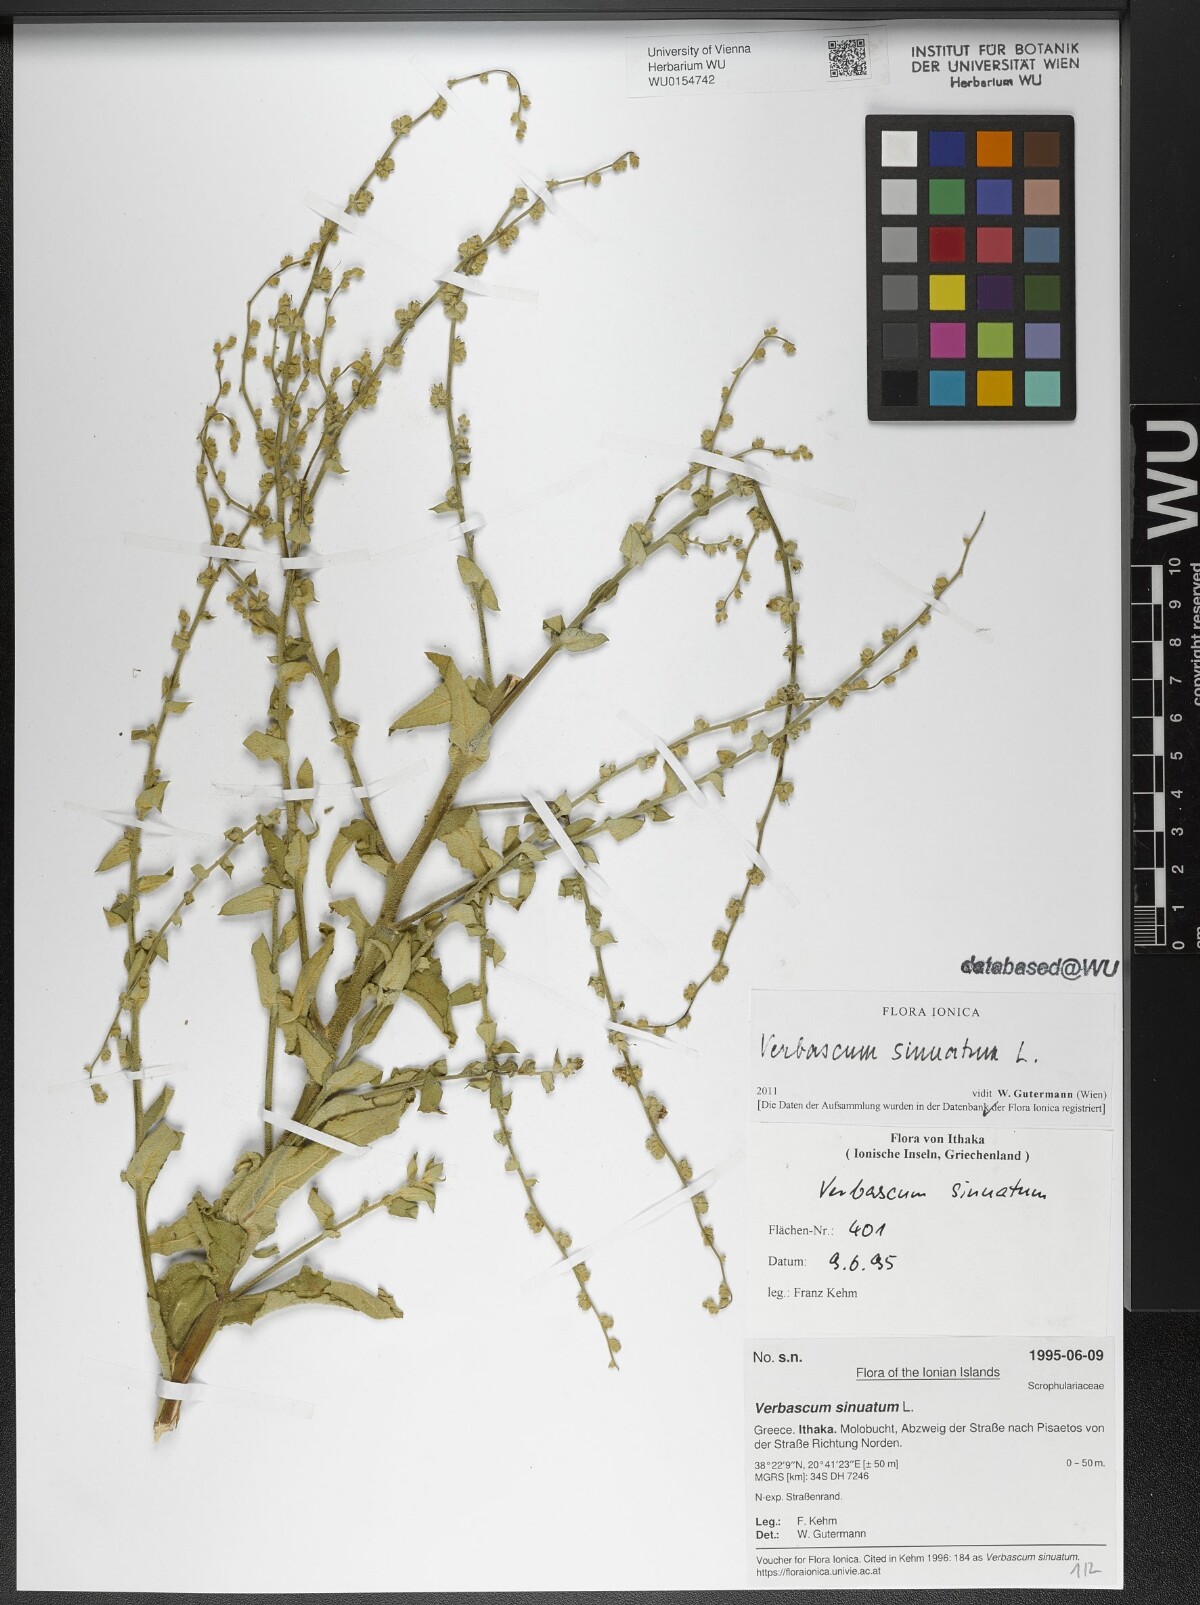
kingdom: Plantae
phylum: Tracheophyta
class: Magnoliopsida
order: Lamiales
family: Scrophulariaceae
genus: Verbascum
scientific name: Verbascum sinuatum
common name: Wavyleaf mullein
